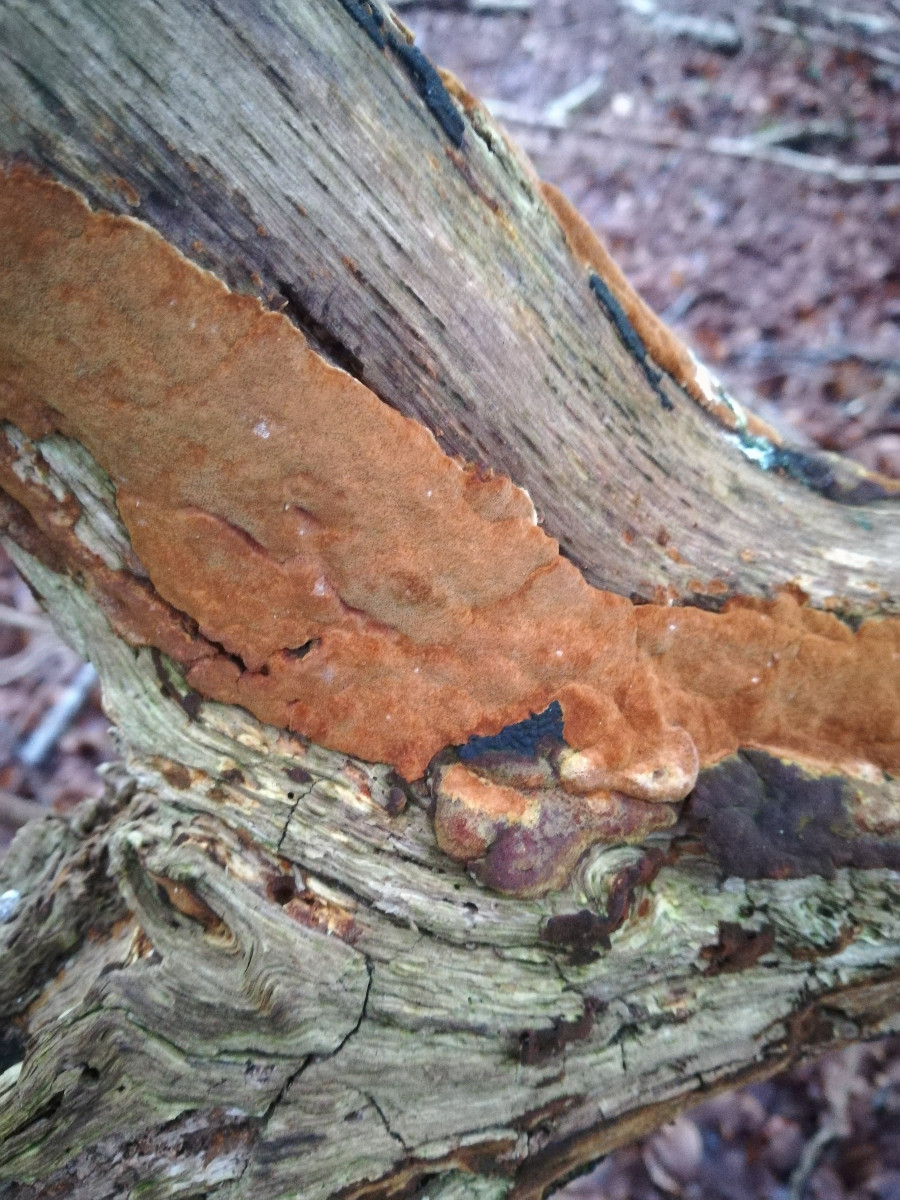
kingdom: Fungi
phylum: Basidiomycota
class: Agaricomycetes
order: Hymenochaetales
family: Hymenochaetaceae
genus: Fuscoporia
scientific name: Fuscoporia ferrea
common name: skorpe-ildporesvamp
